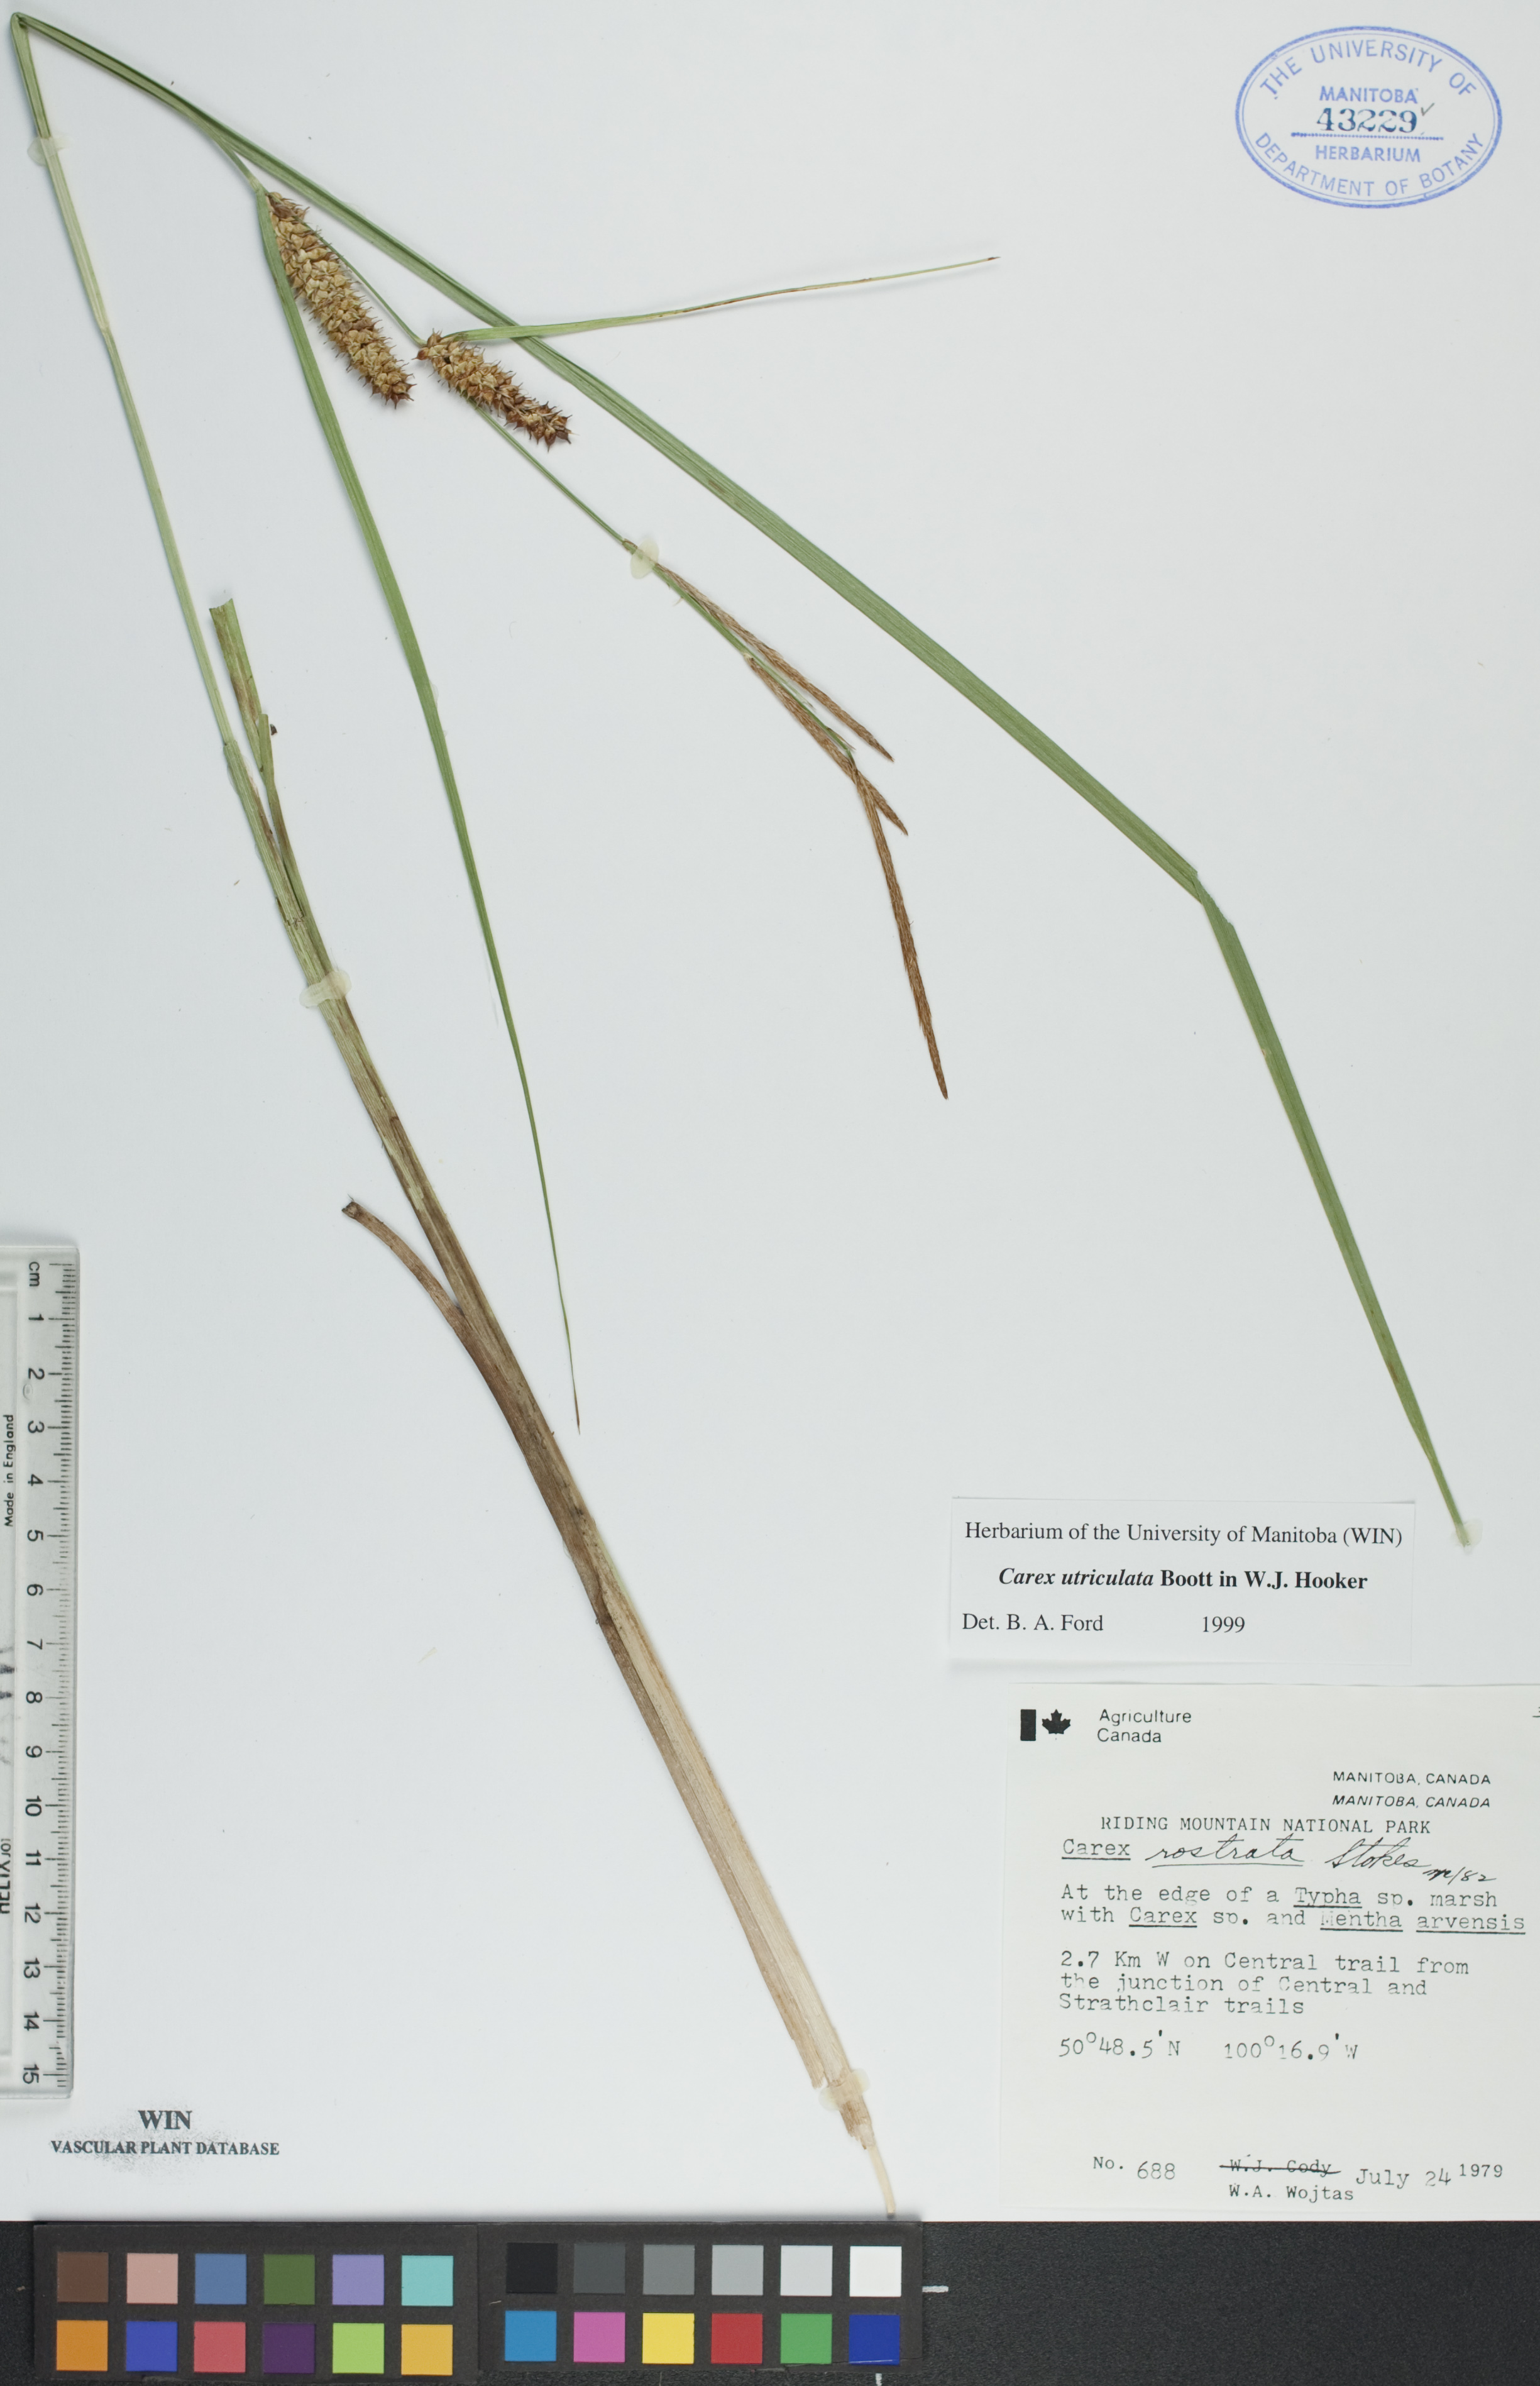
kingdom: Plantae
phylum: Tracheophyta
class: Liliopsida
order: Poales
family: Cyperaceae
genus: Carex
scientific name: Carex utriculata
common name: Beaked sedge
